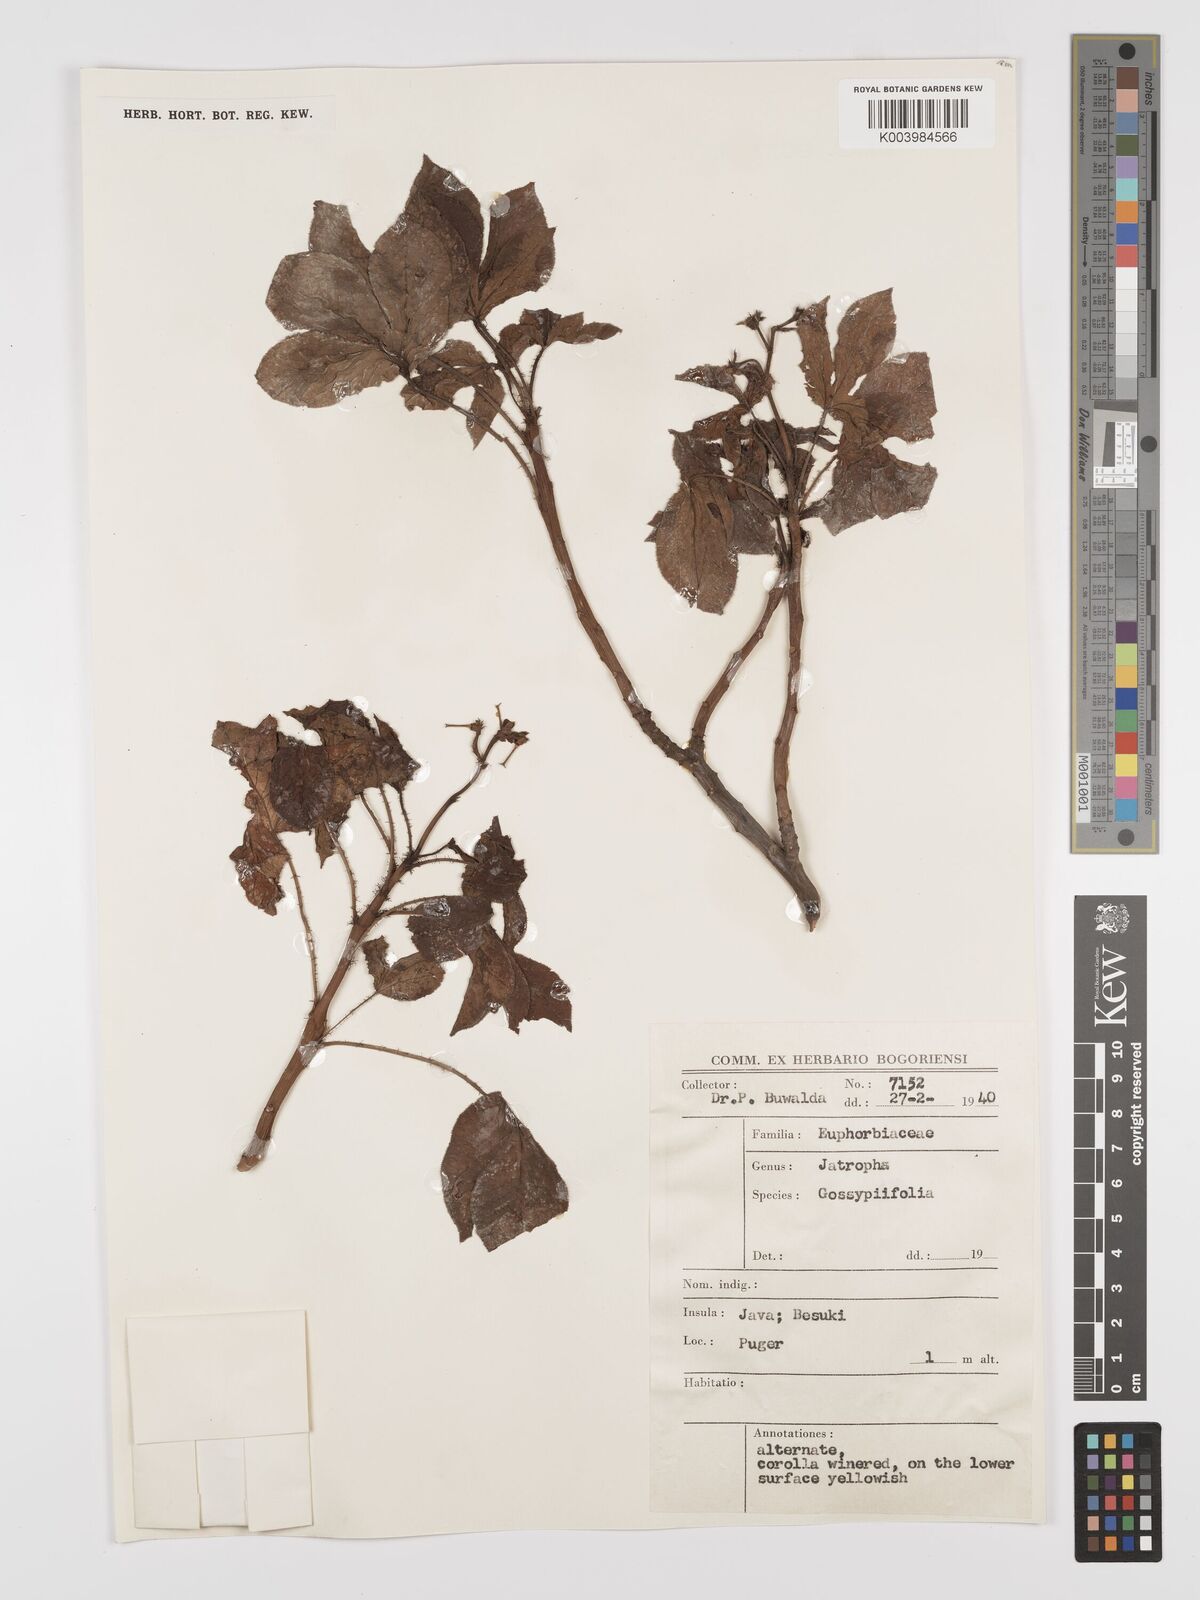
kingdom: Plantae
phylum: Tracheophyta
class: Magnoliopsida
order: Malpighiales
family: Euphorbiaceae
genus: Jatropha
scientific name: Jatropha gossypiifolia
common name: Bellyache bush
